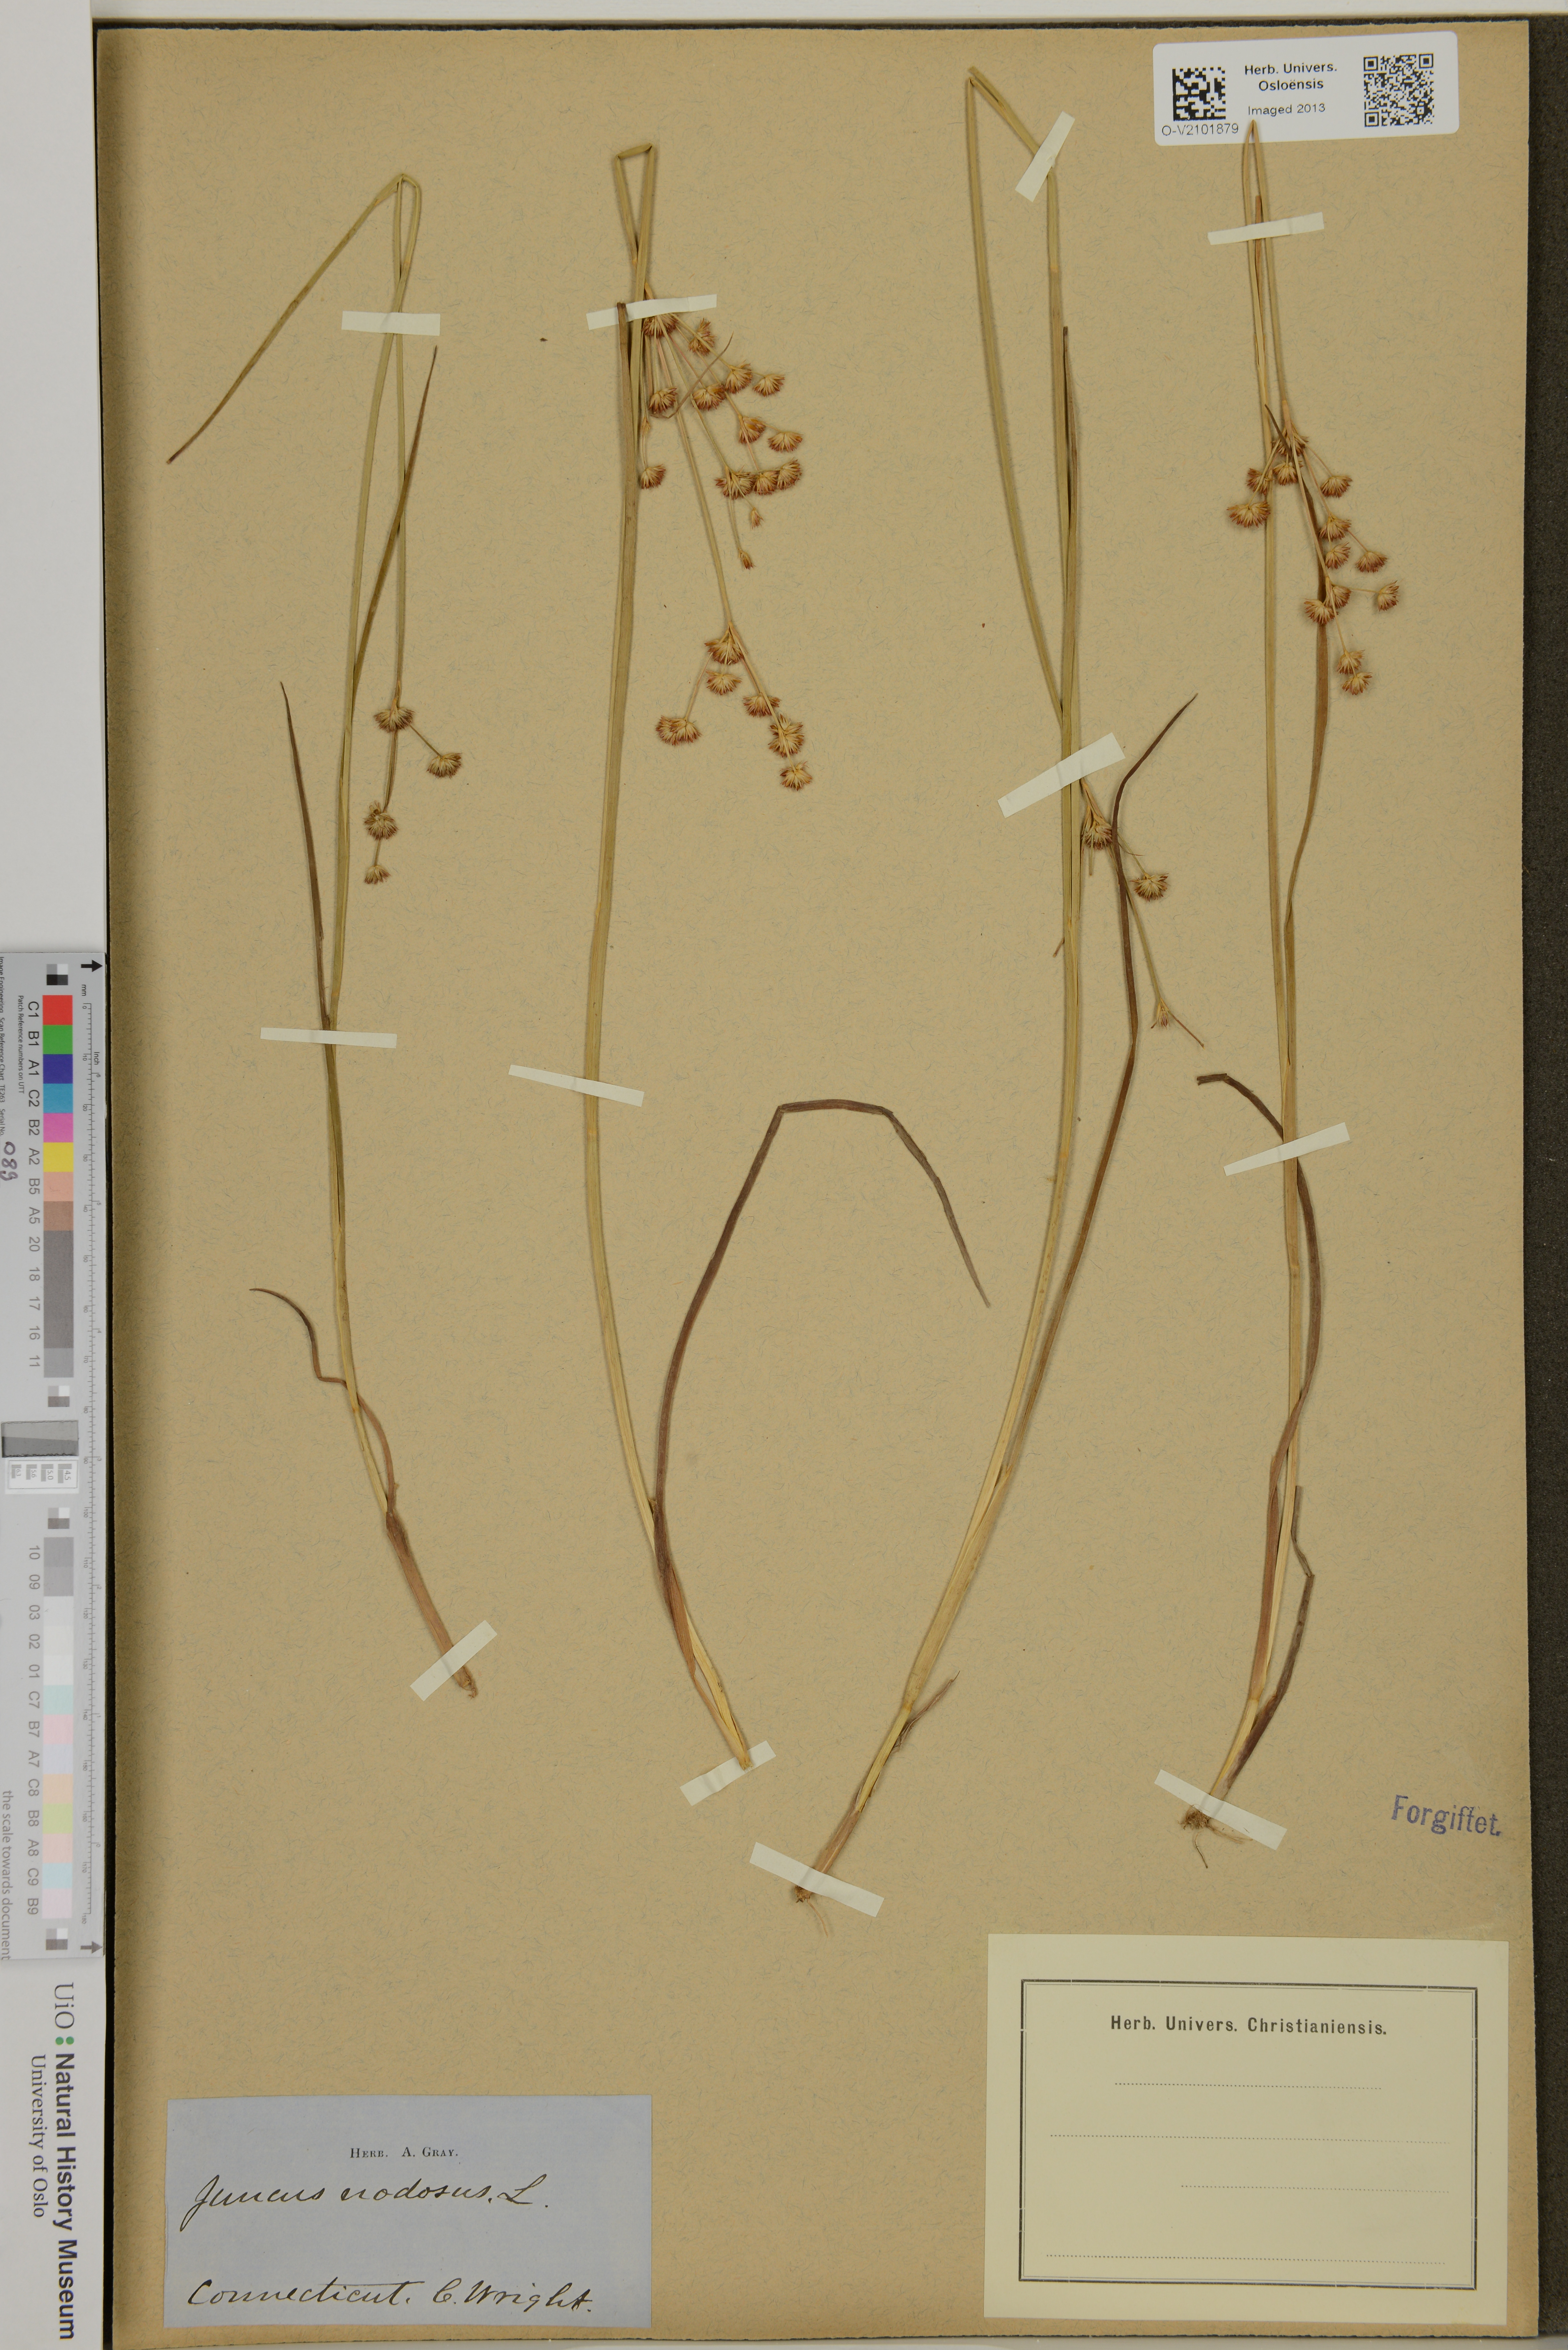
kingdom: Plantae
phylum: Tracheophyta
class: Liliopsida
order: Poales
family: Juncaceae
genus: Juncus
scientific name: Juncus nodosus
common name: Knotted rush
